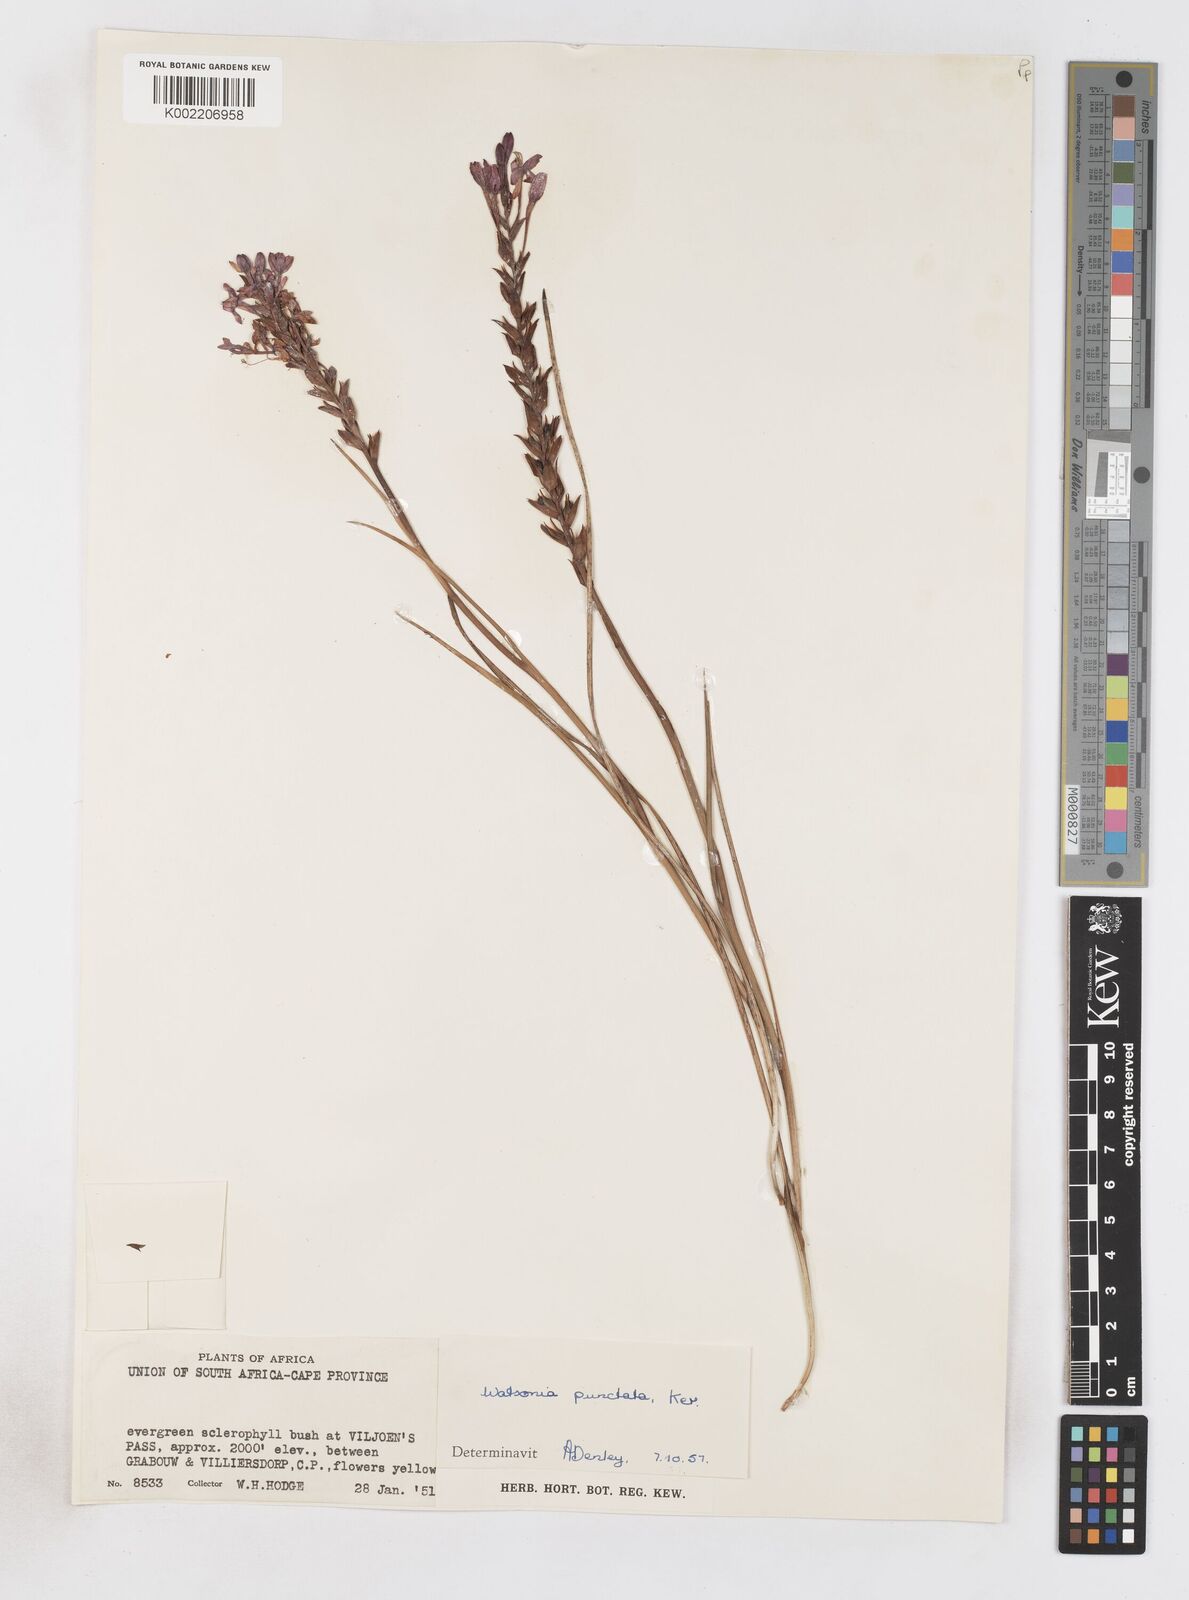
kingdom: Plantae
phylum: Tracheophyta
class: Liliopsida
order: Asparagales
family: Iridaceae
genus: Thereianthus
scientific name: Thereianthus spicatus
